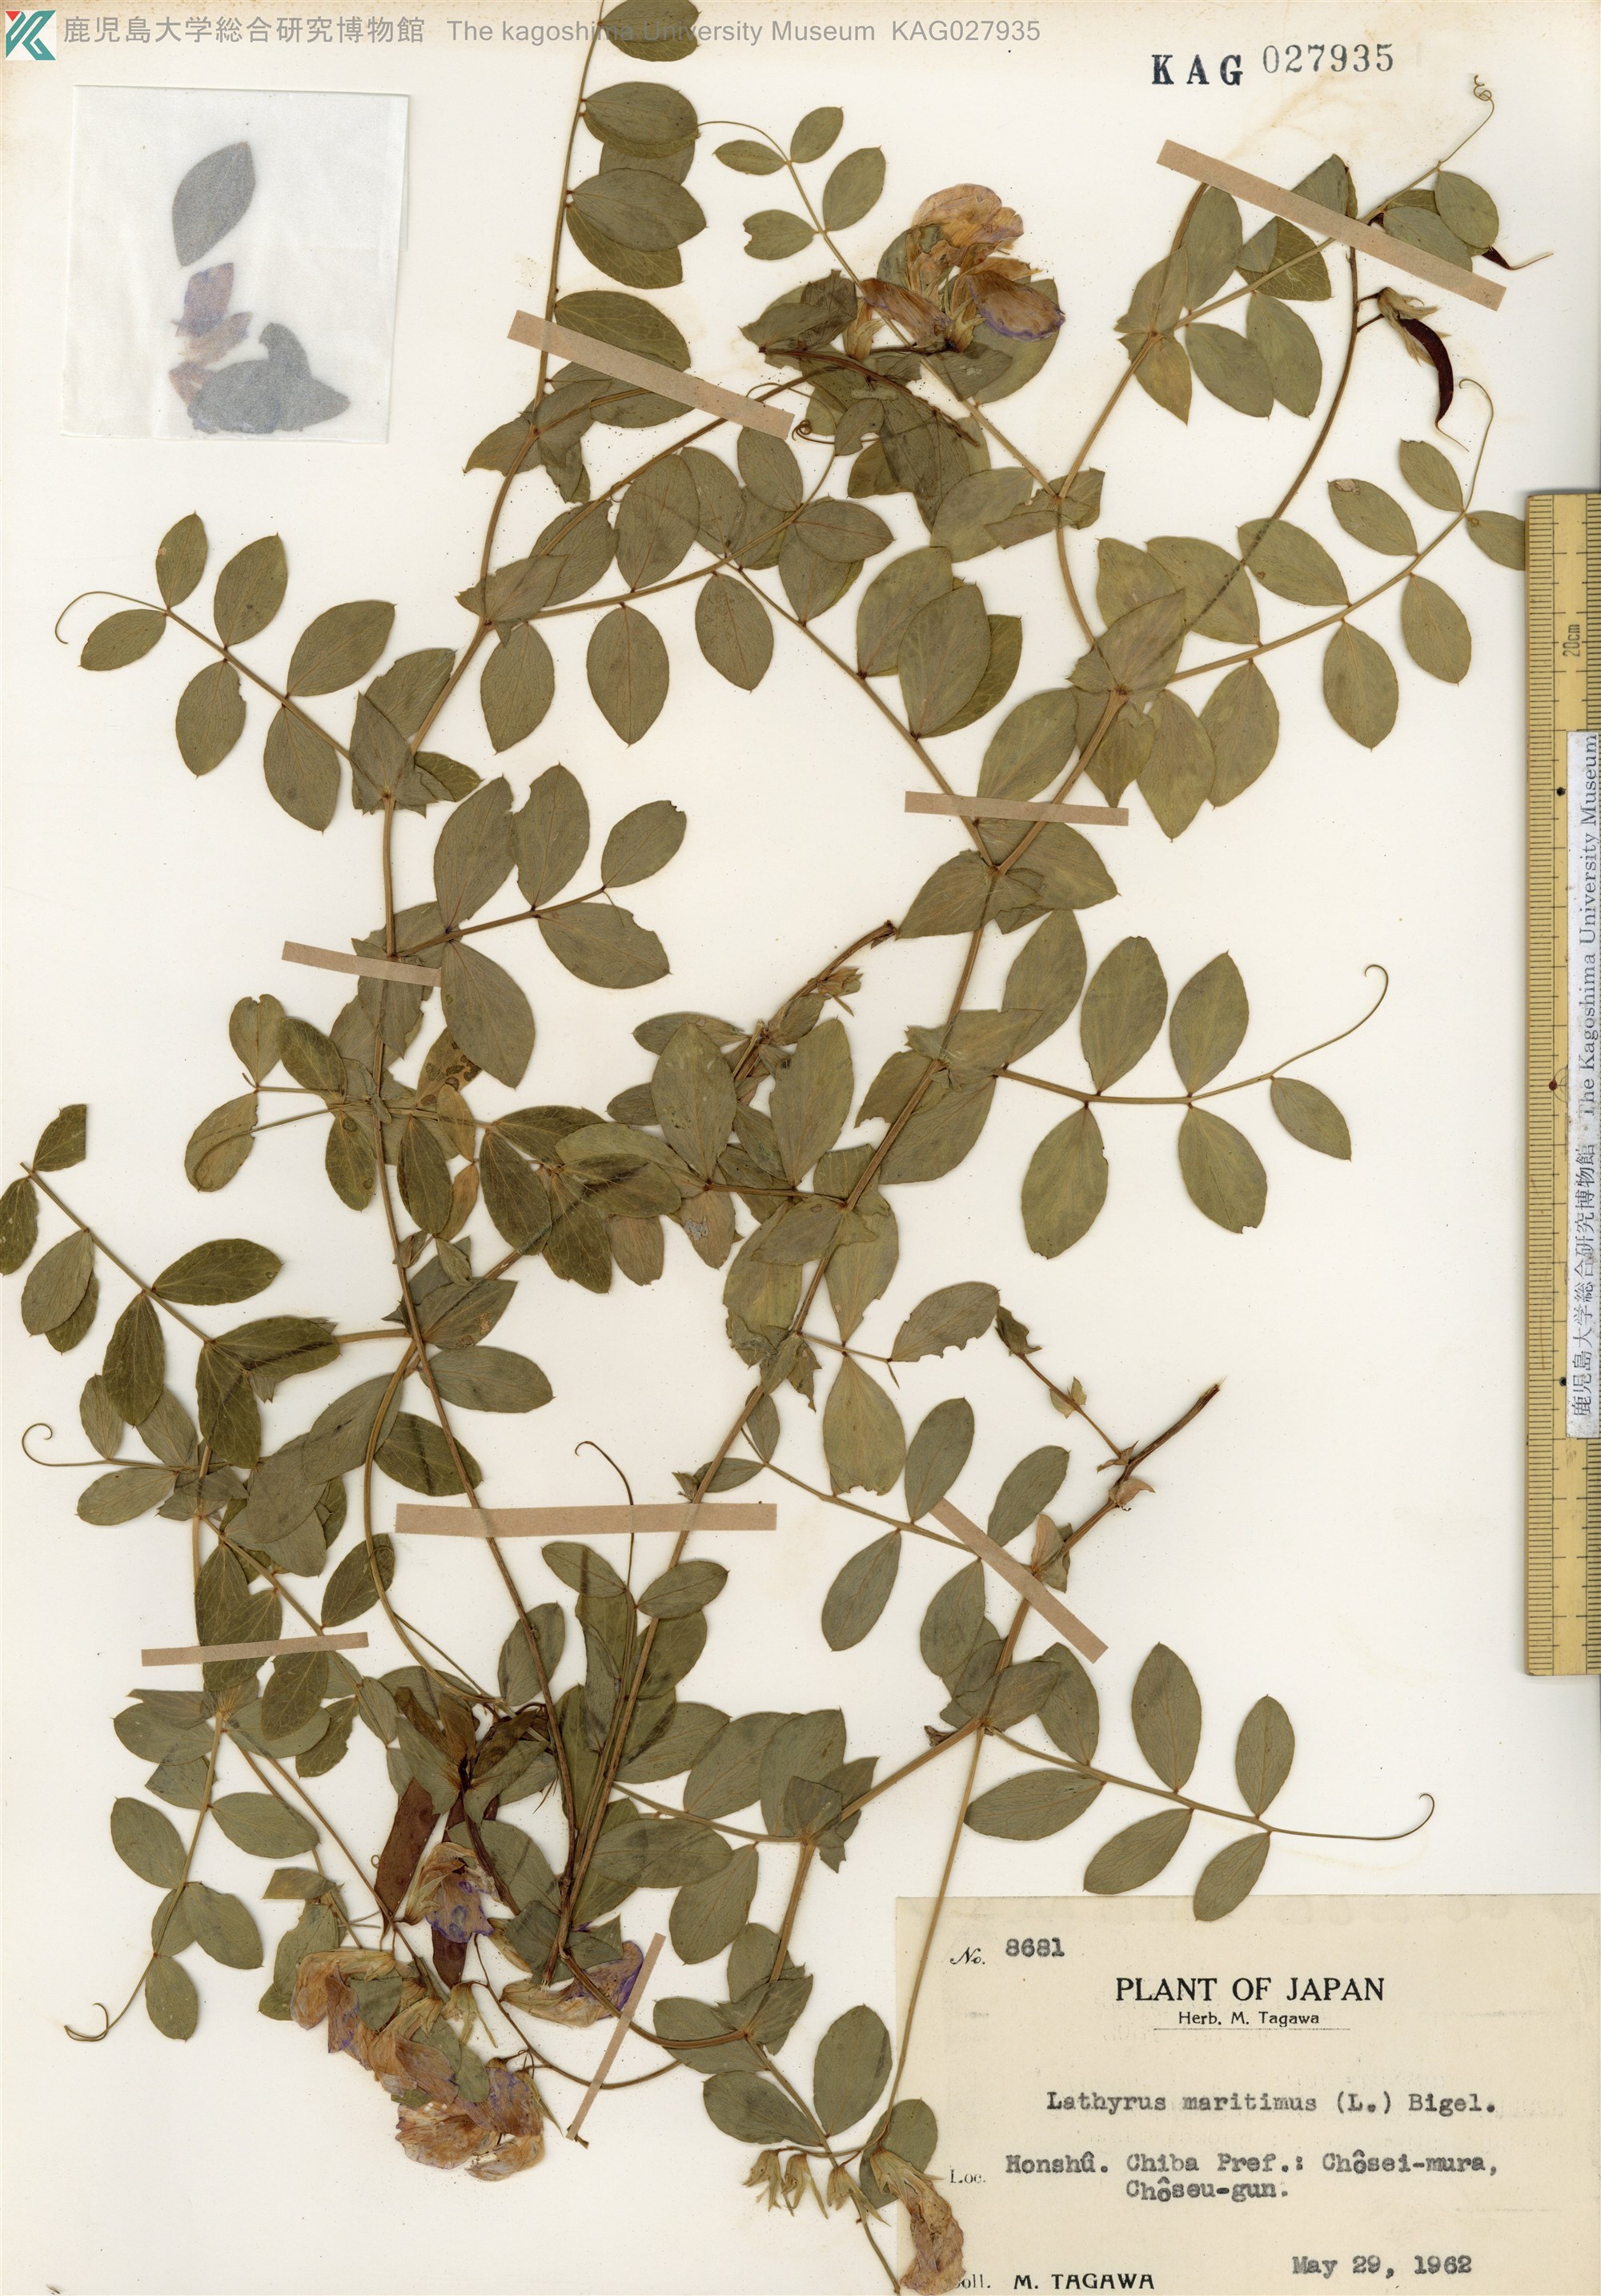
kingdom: Plantae
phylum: Tracheophyta
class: Magnoliopsida
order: Fabales
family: Fabaceae
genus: Lathyrus
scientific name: Lathyrus japonicus
